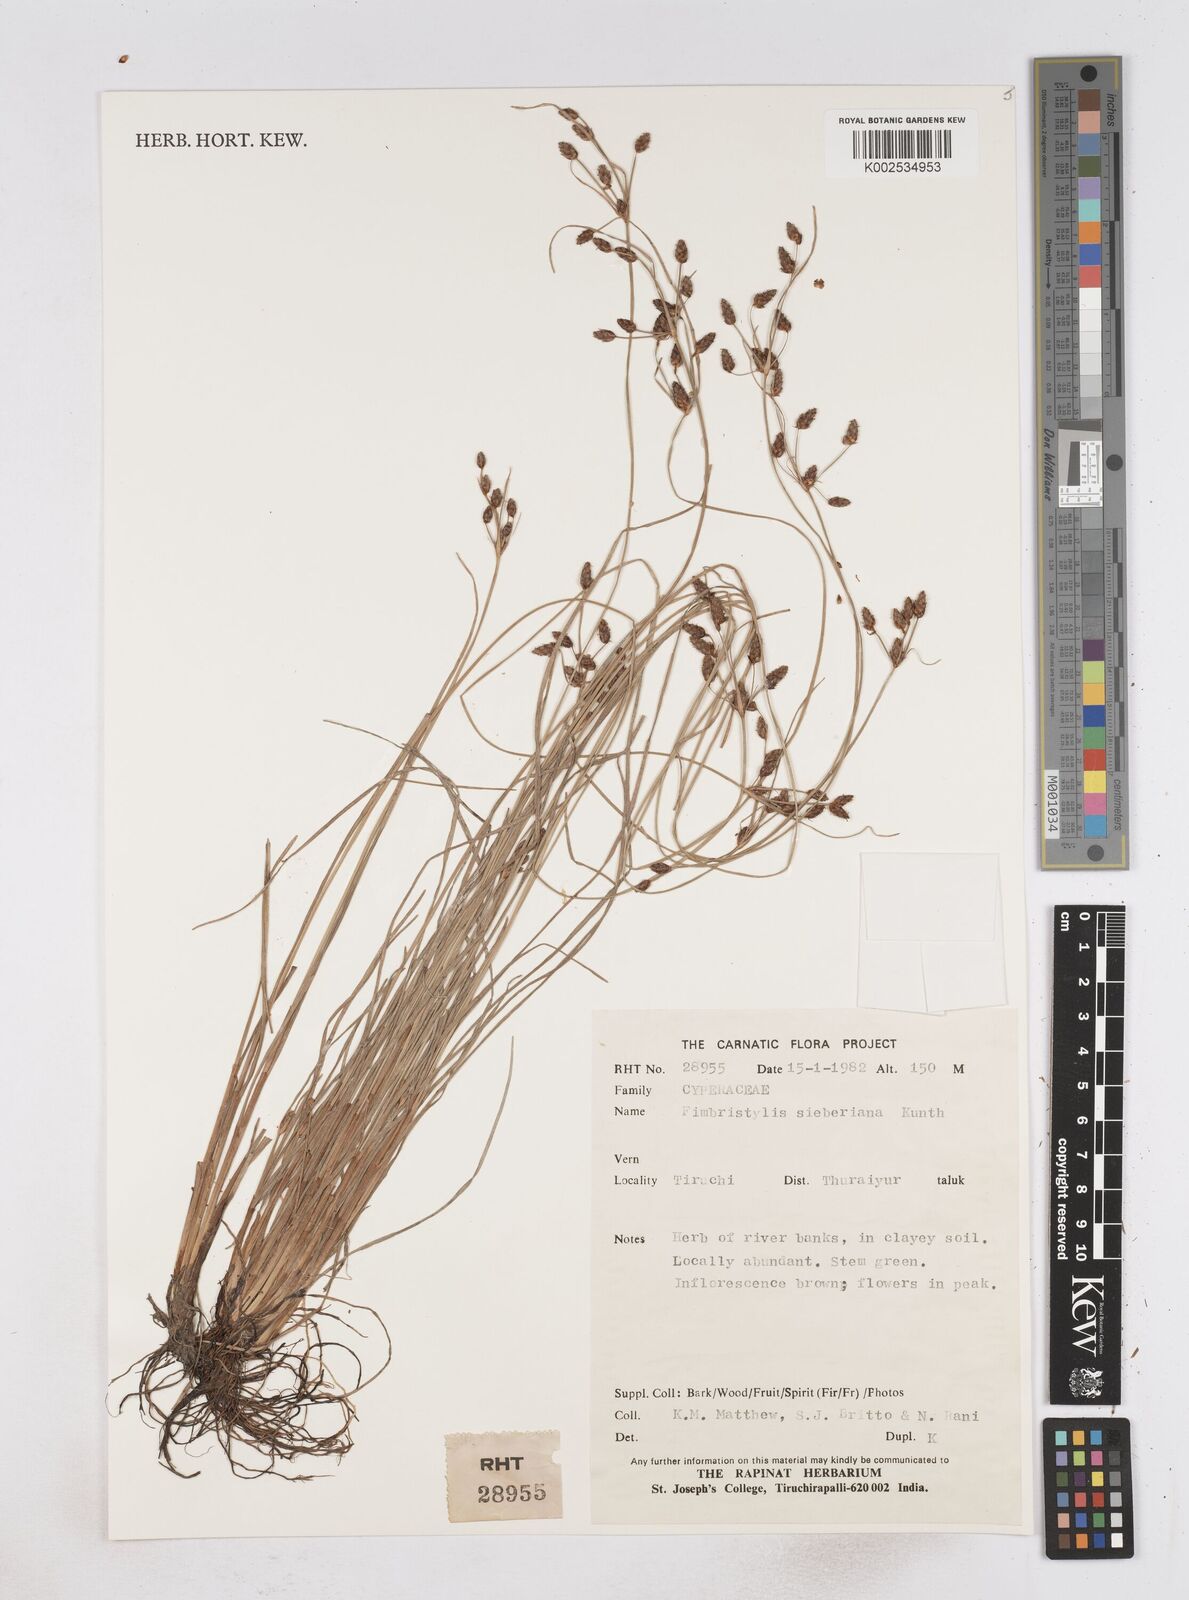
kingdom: Plantae
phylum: Tracheophyta
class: Liliopsida
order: Poales
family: Cyperaceae
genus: Fimbristylis
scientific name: Fimbristylis ferruginea
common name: West indian fimbry
